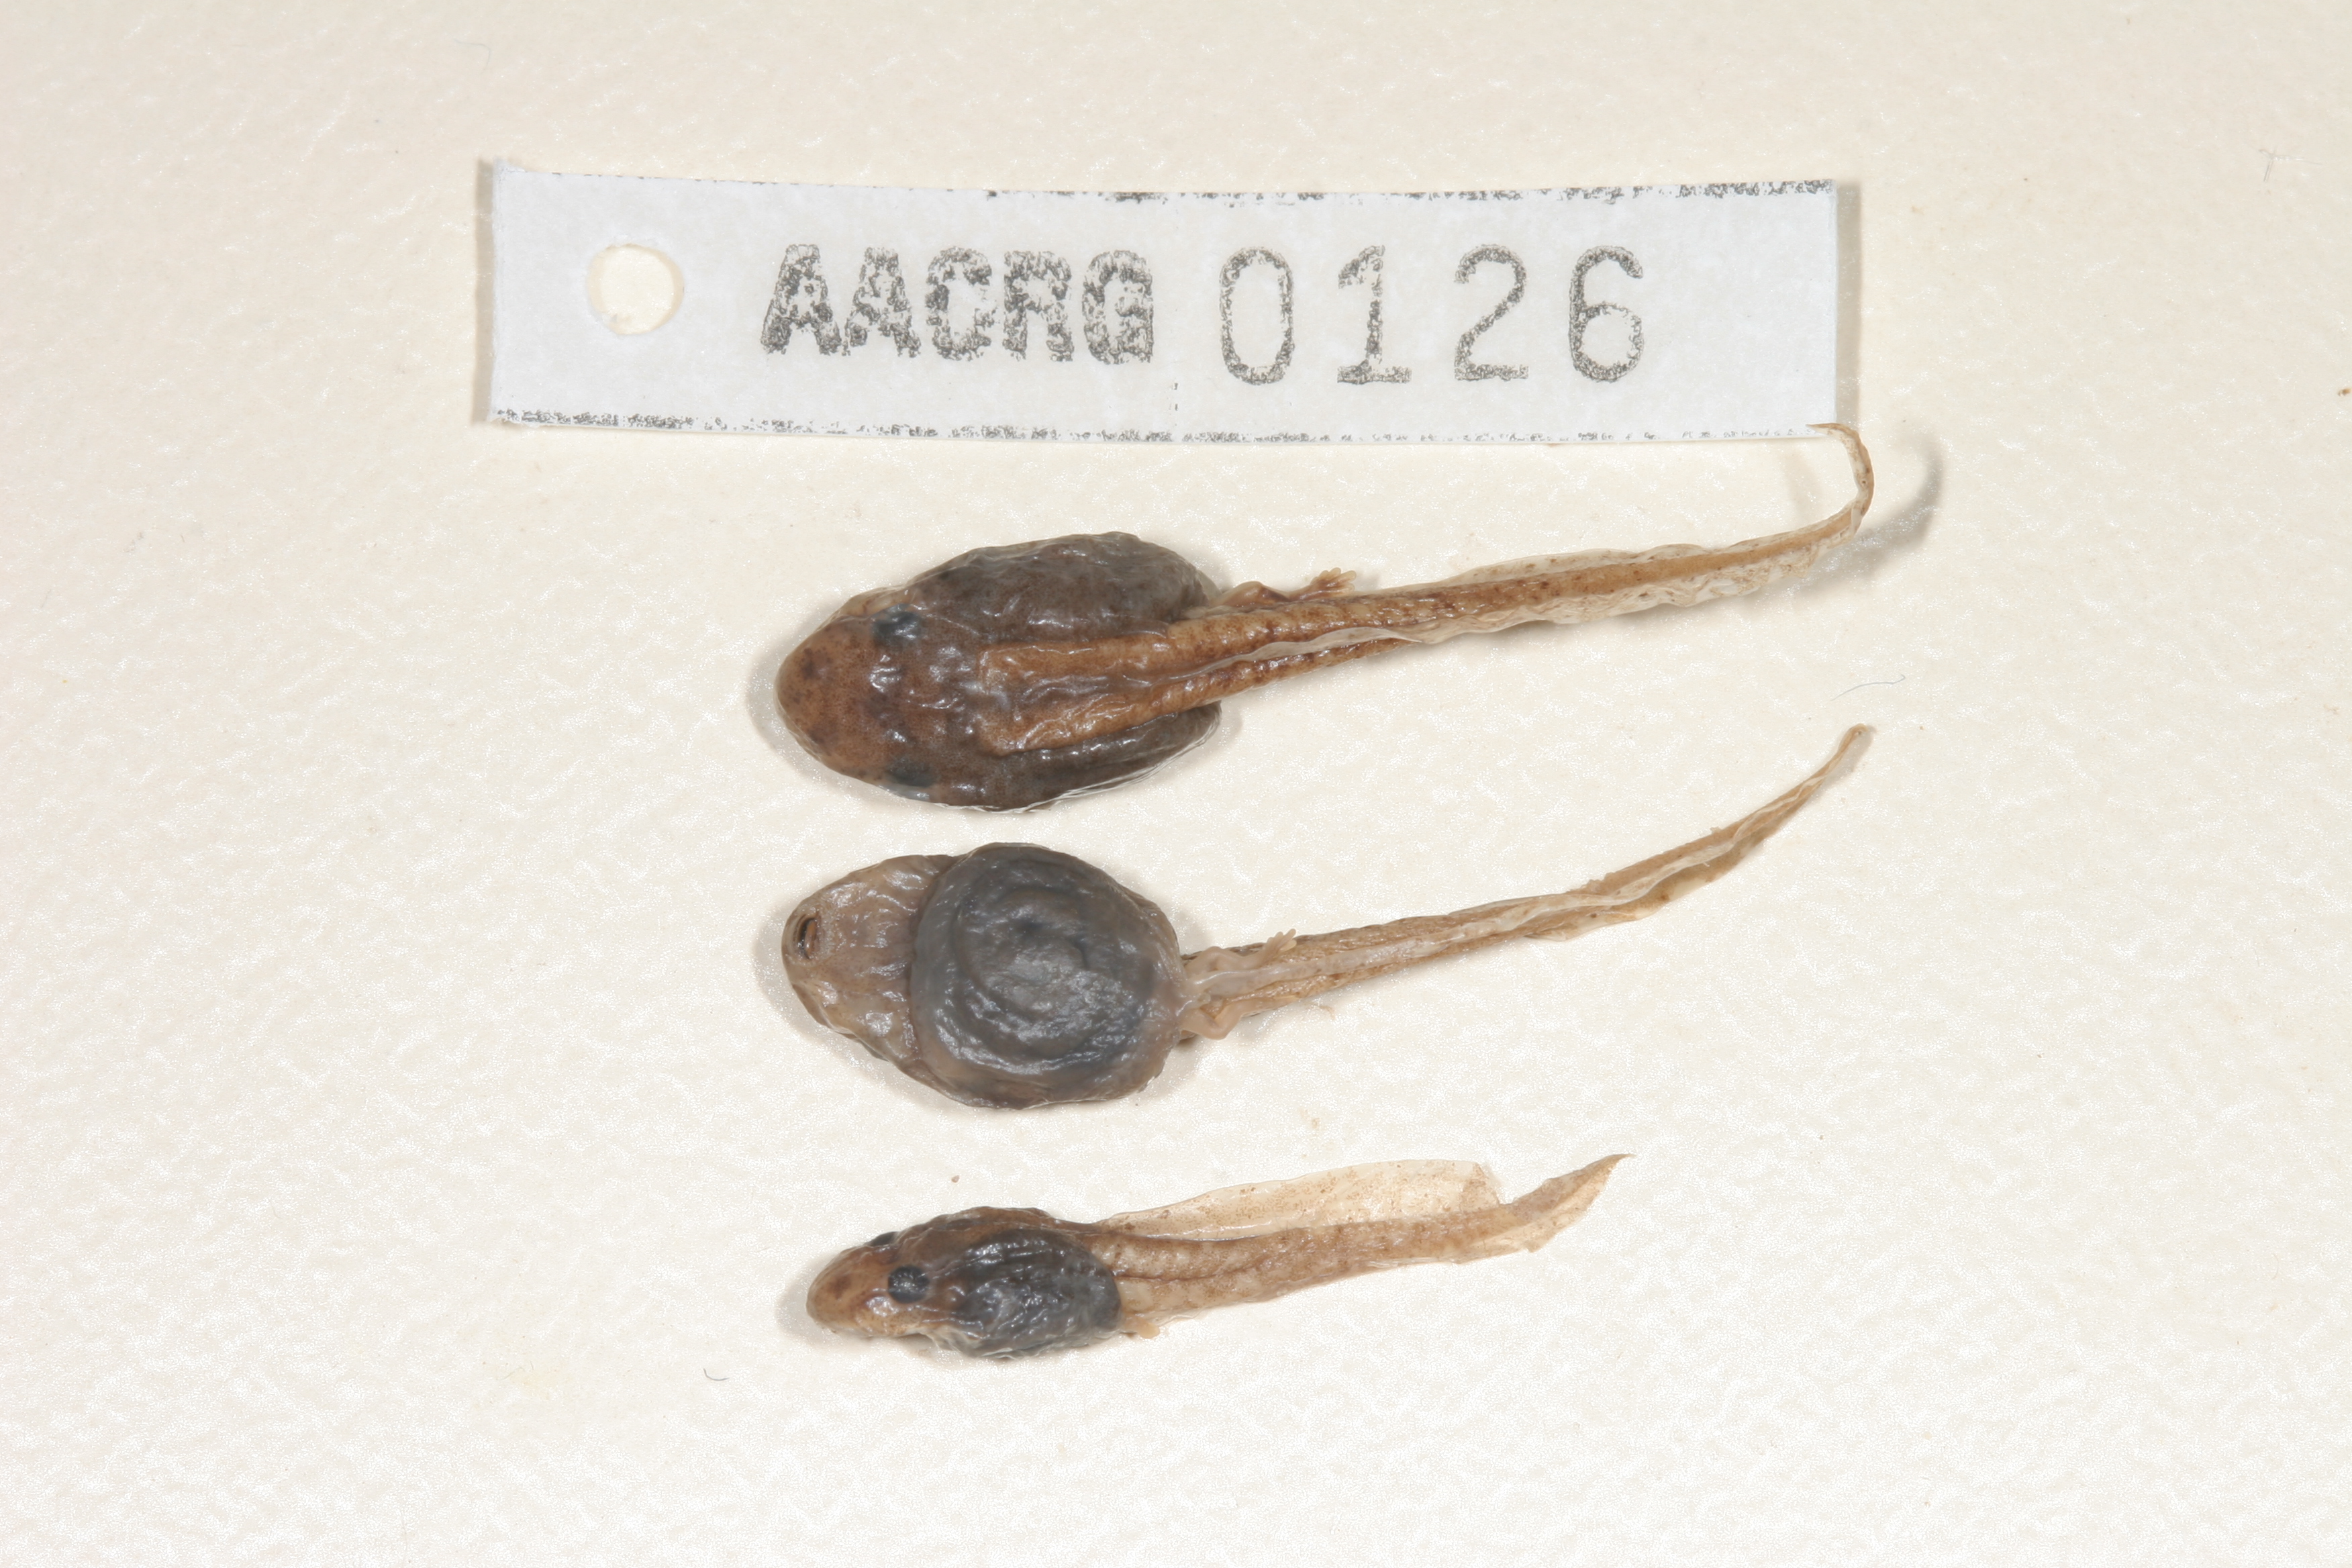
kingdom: Animalia
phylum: Chordata
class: Amphibia
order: Anura
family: Hyperoliidae
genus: Hyperolius
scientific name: Hyperolius semidiscus
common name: Yellow-striped reed frog
